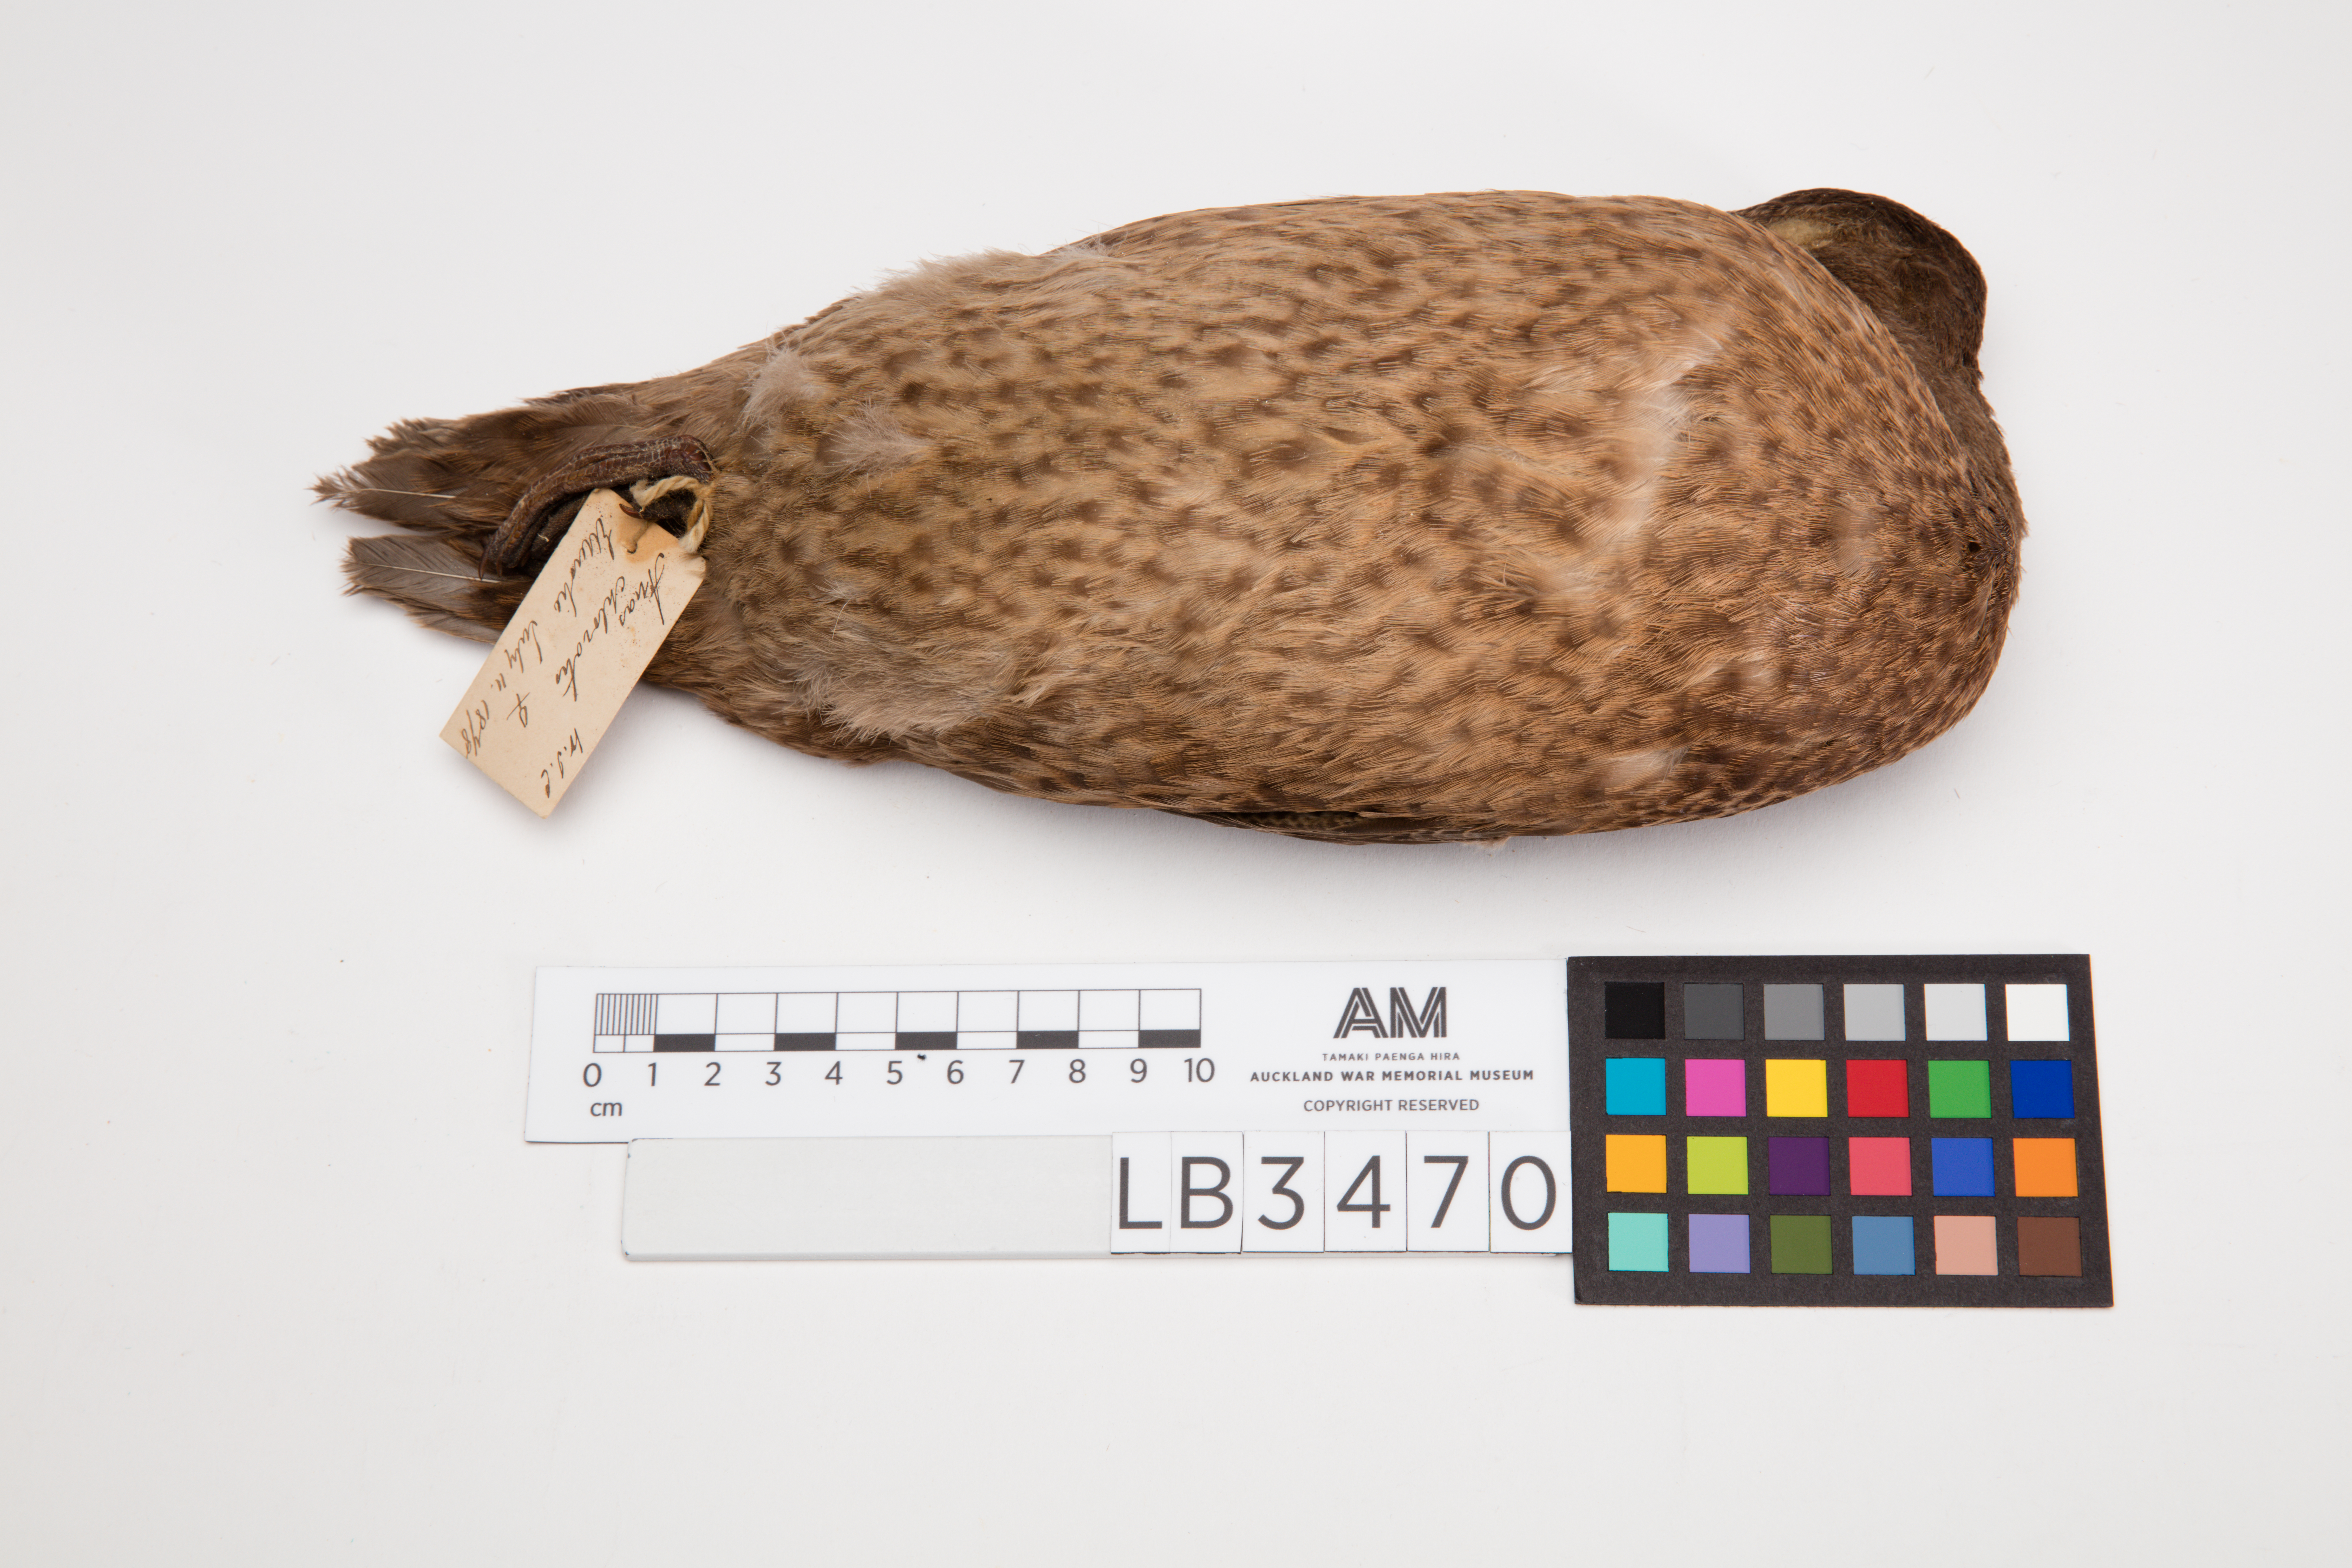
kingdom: Animalia
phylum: Chordata
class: Aves
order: Anseriformes
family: Anatidae
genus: Anas
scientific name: Anas chlorotis
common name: Brown teal
